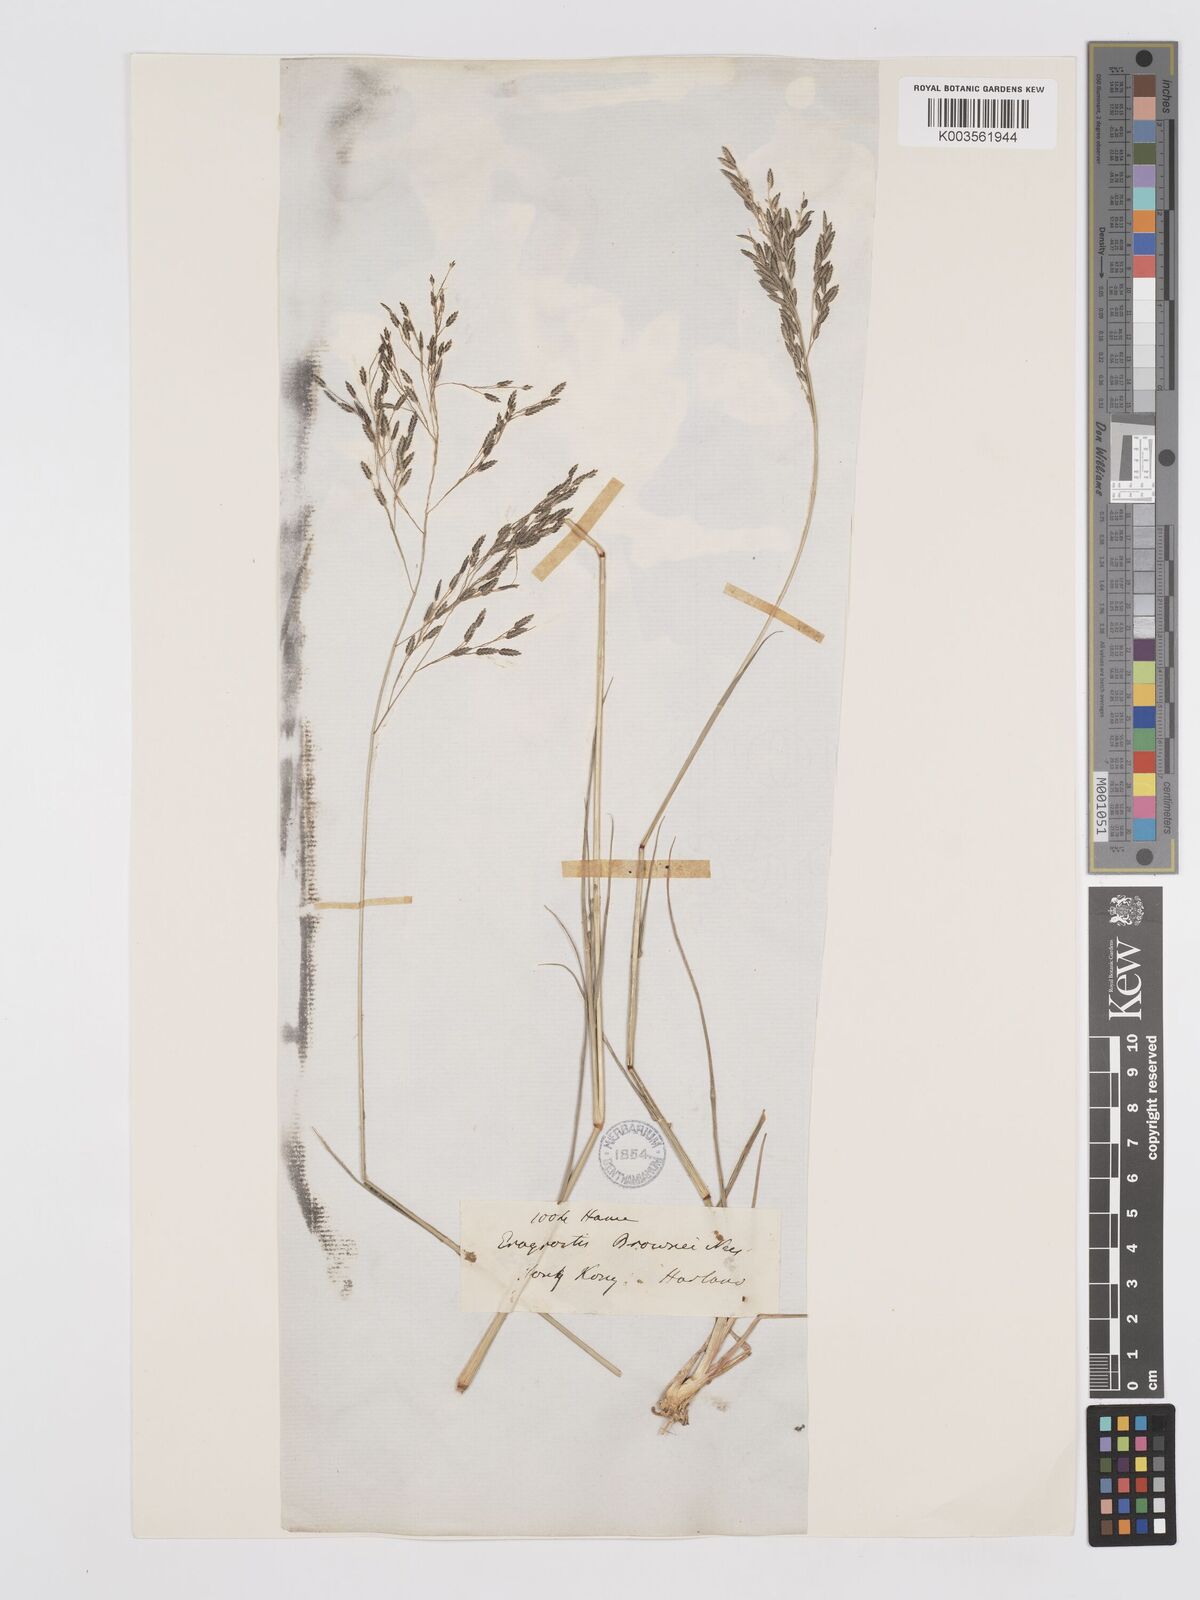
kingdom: Plantae
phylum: Tracheophyta
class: Liliopsida
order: Poales
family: Poaceae
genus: Eragrostis
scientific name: Eragrostis atrovirens
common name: Thalia lovegrass
